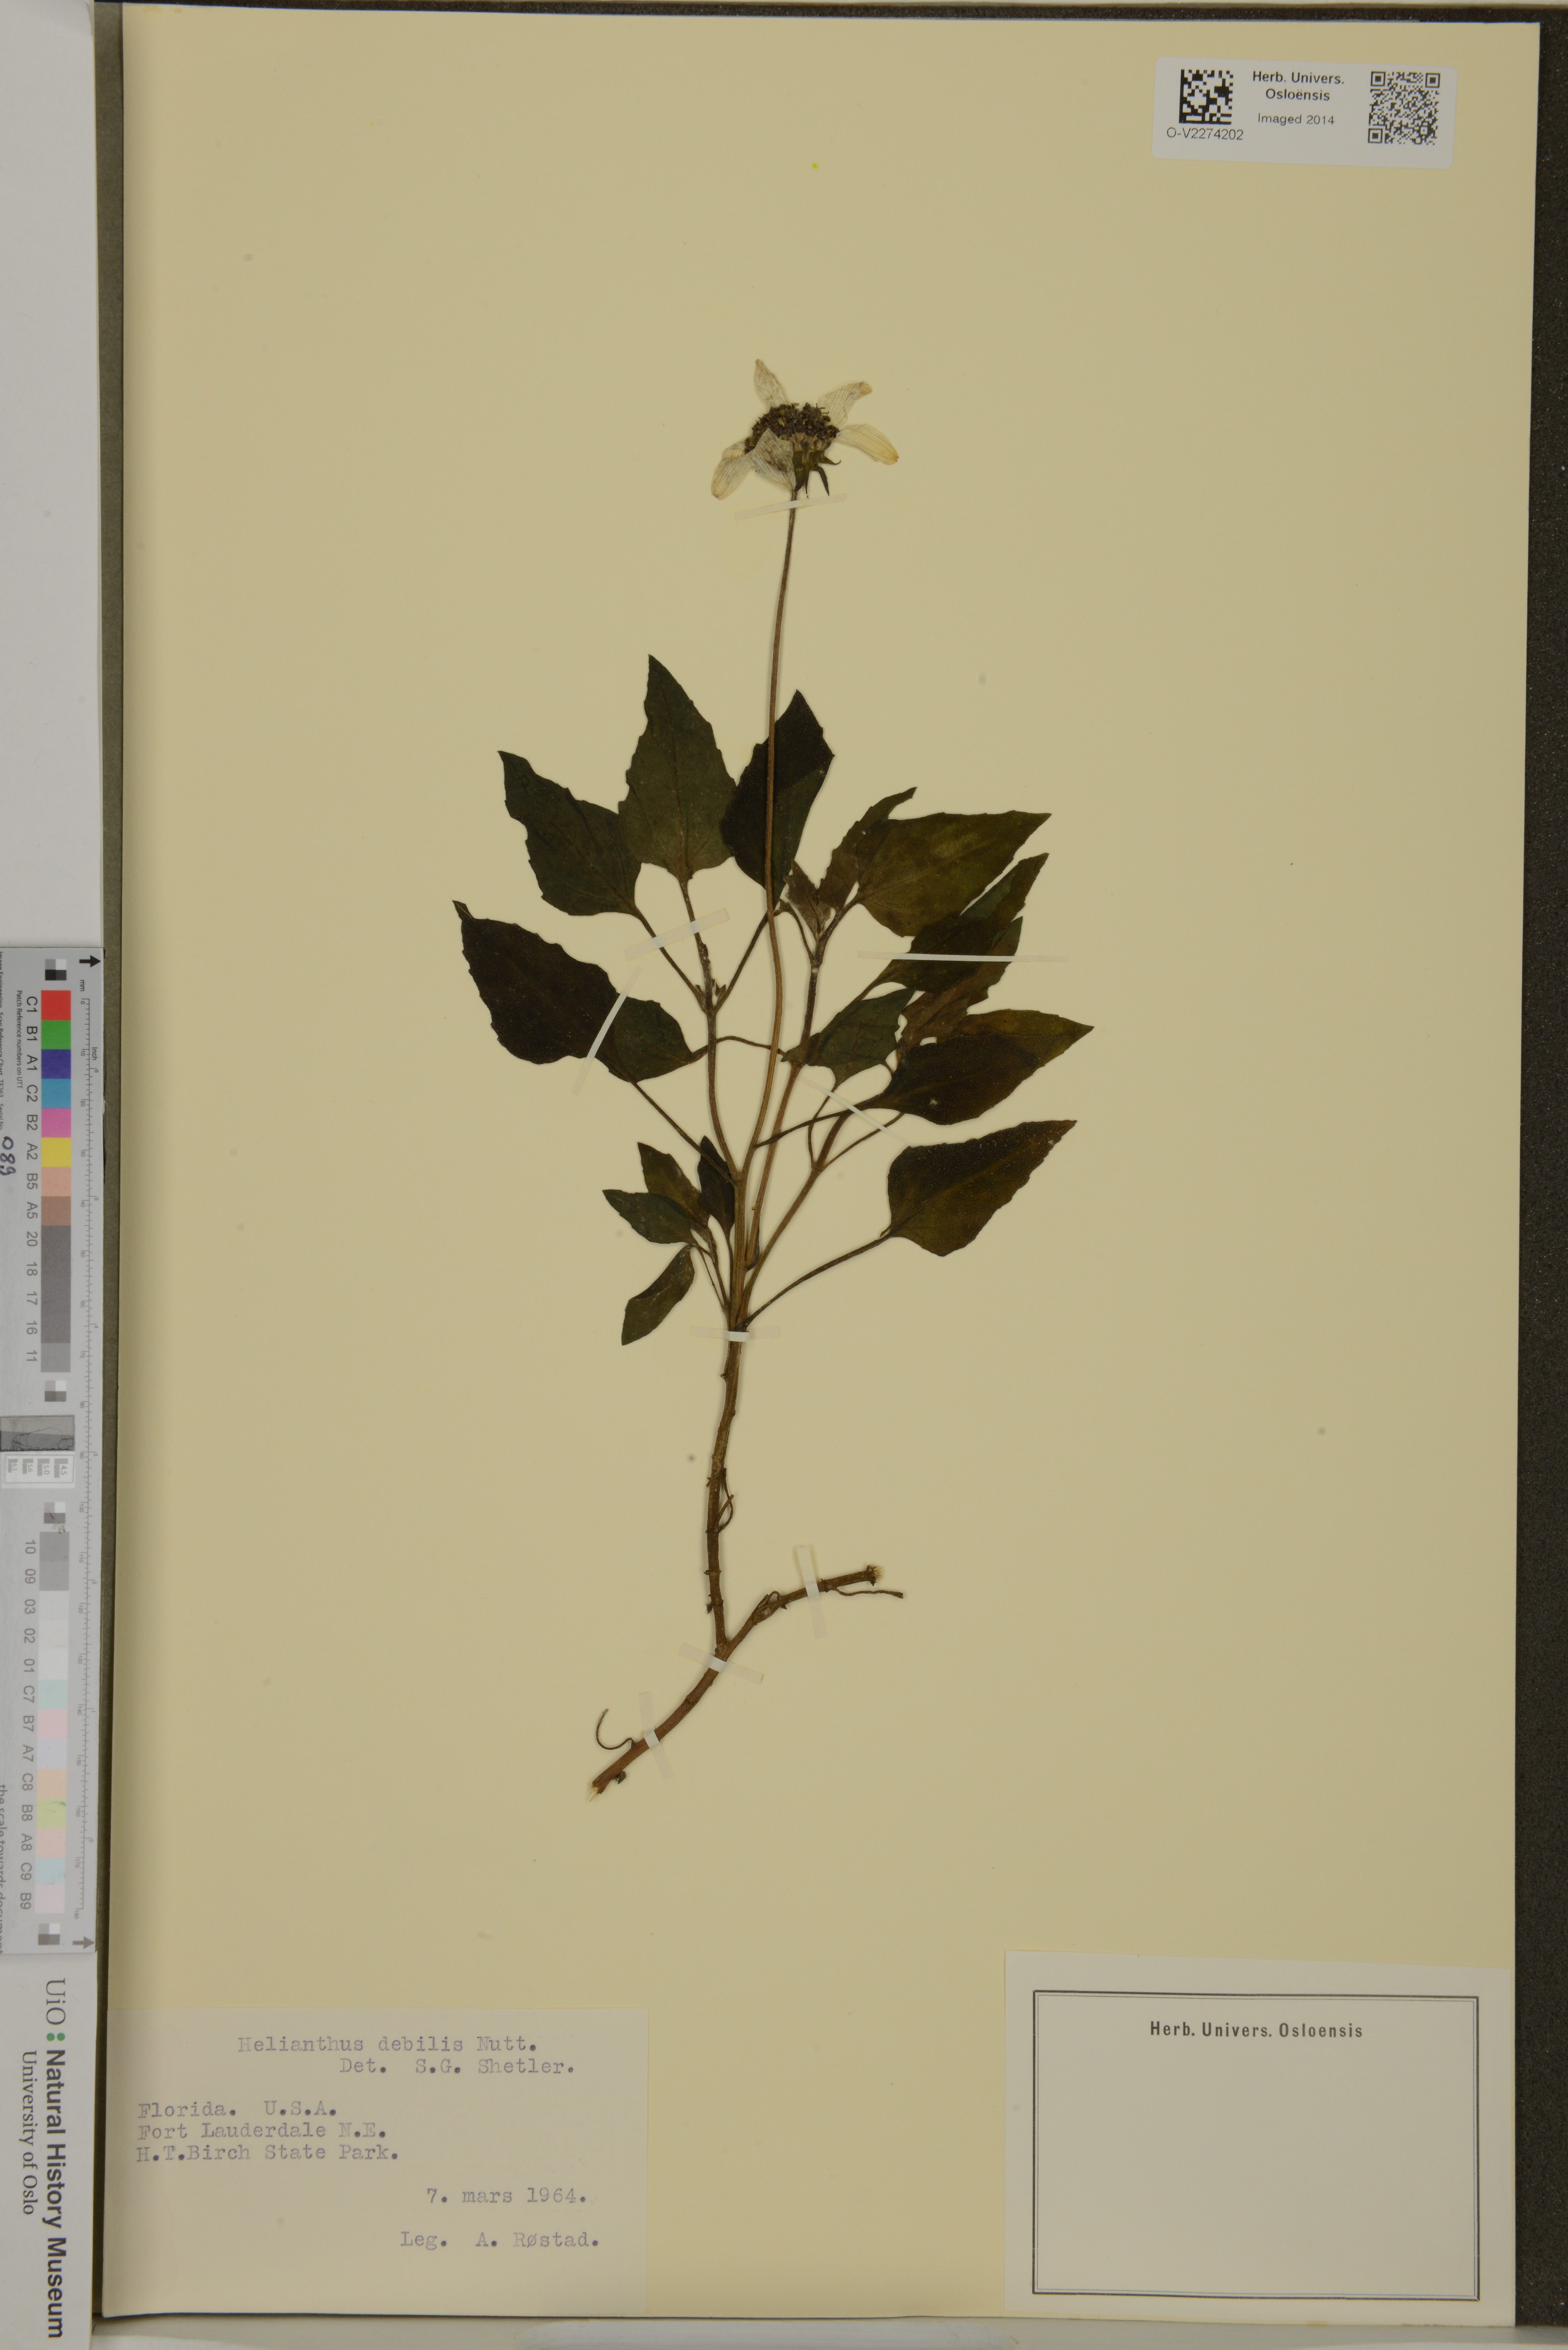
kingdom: Plantae
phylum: Tracheophyta
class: Magnoliopsida
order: Asterales
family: Asteraceae
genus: Helianthus
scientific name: Helianthus debilis
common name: Weak sunflower
